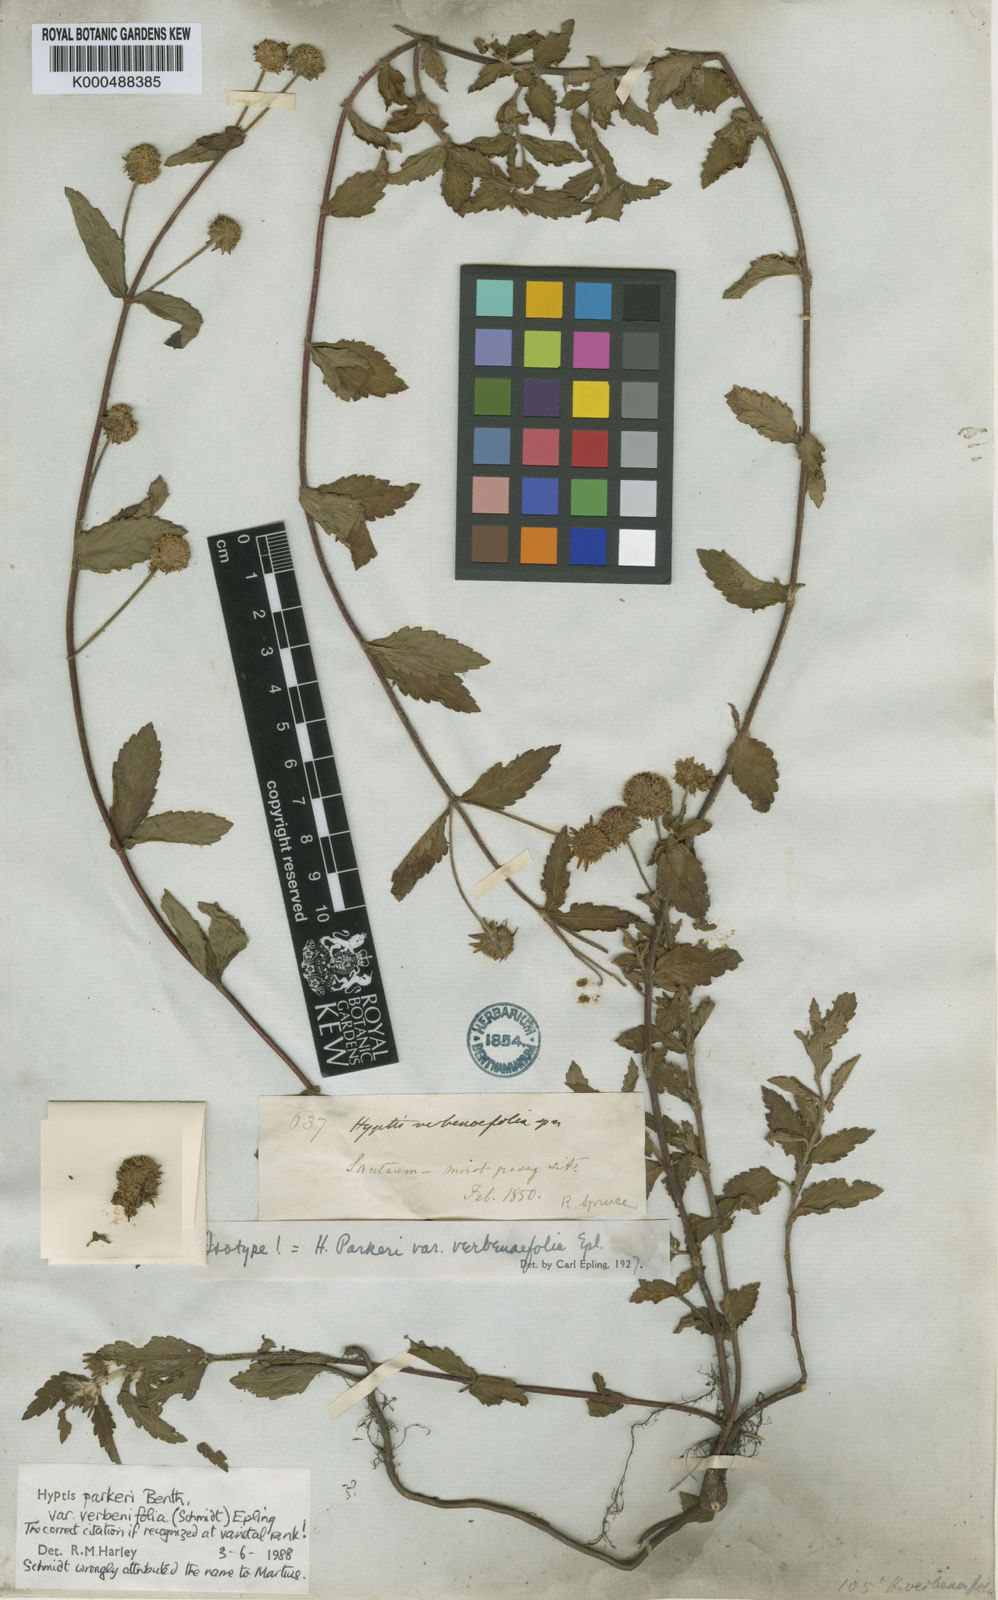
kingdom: Plantae
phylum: Tracheophyta
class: Magnoliopsida
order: Lamiales
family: Lamiaceae
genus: Hyptis
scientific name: Hyptis parkeri
